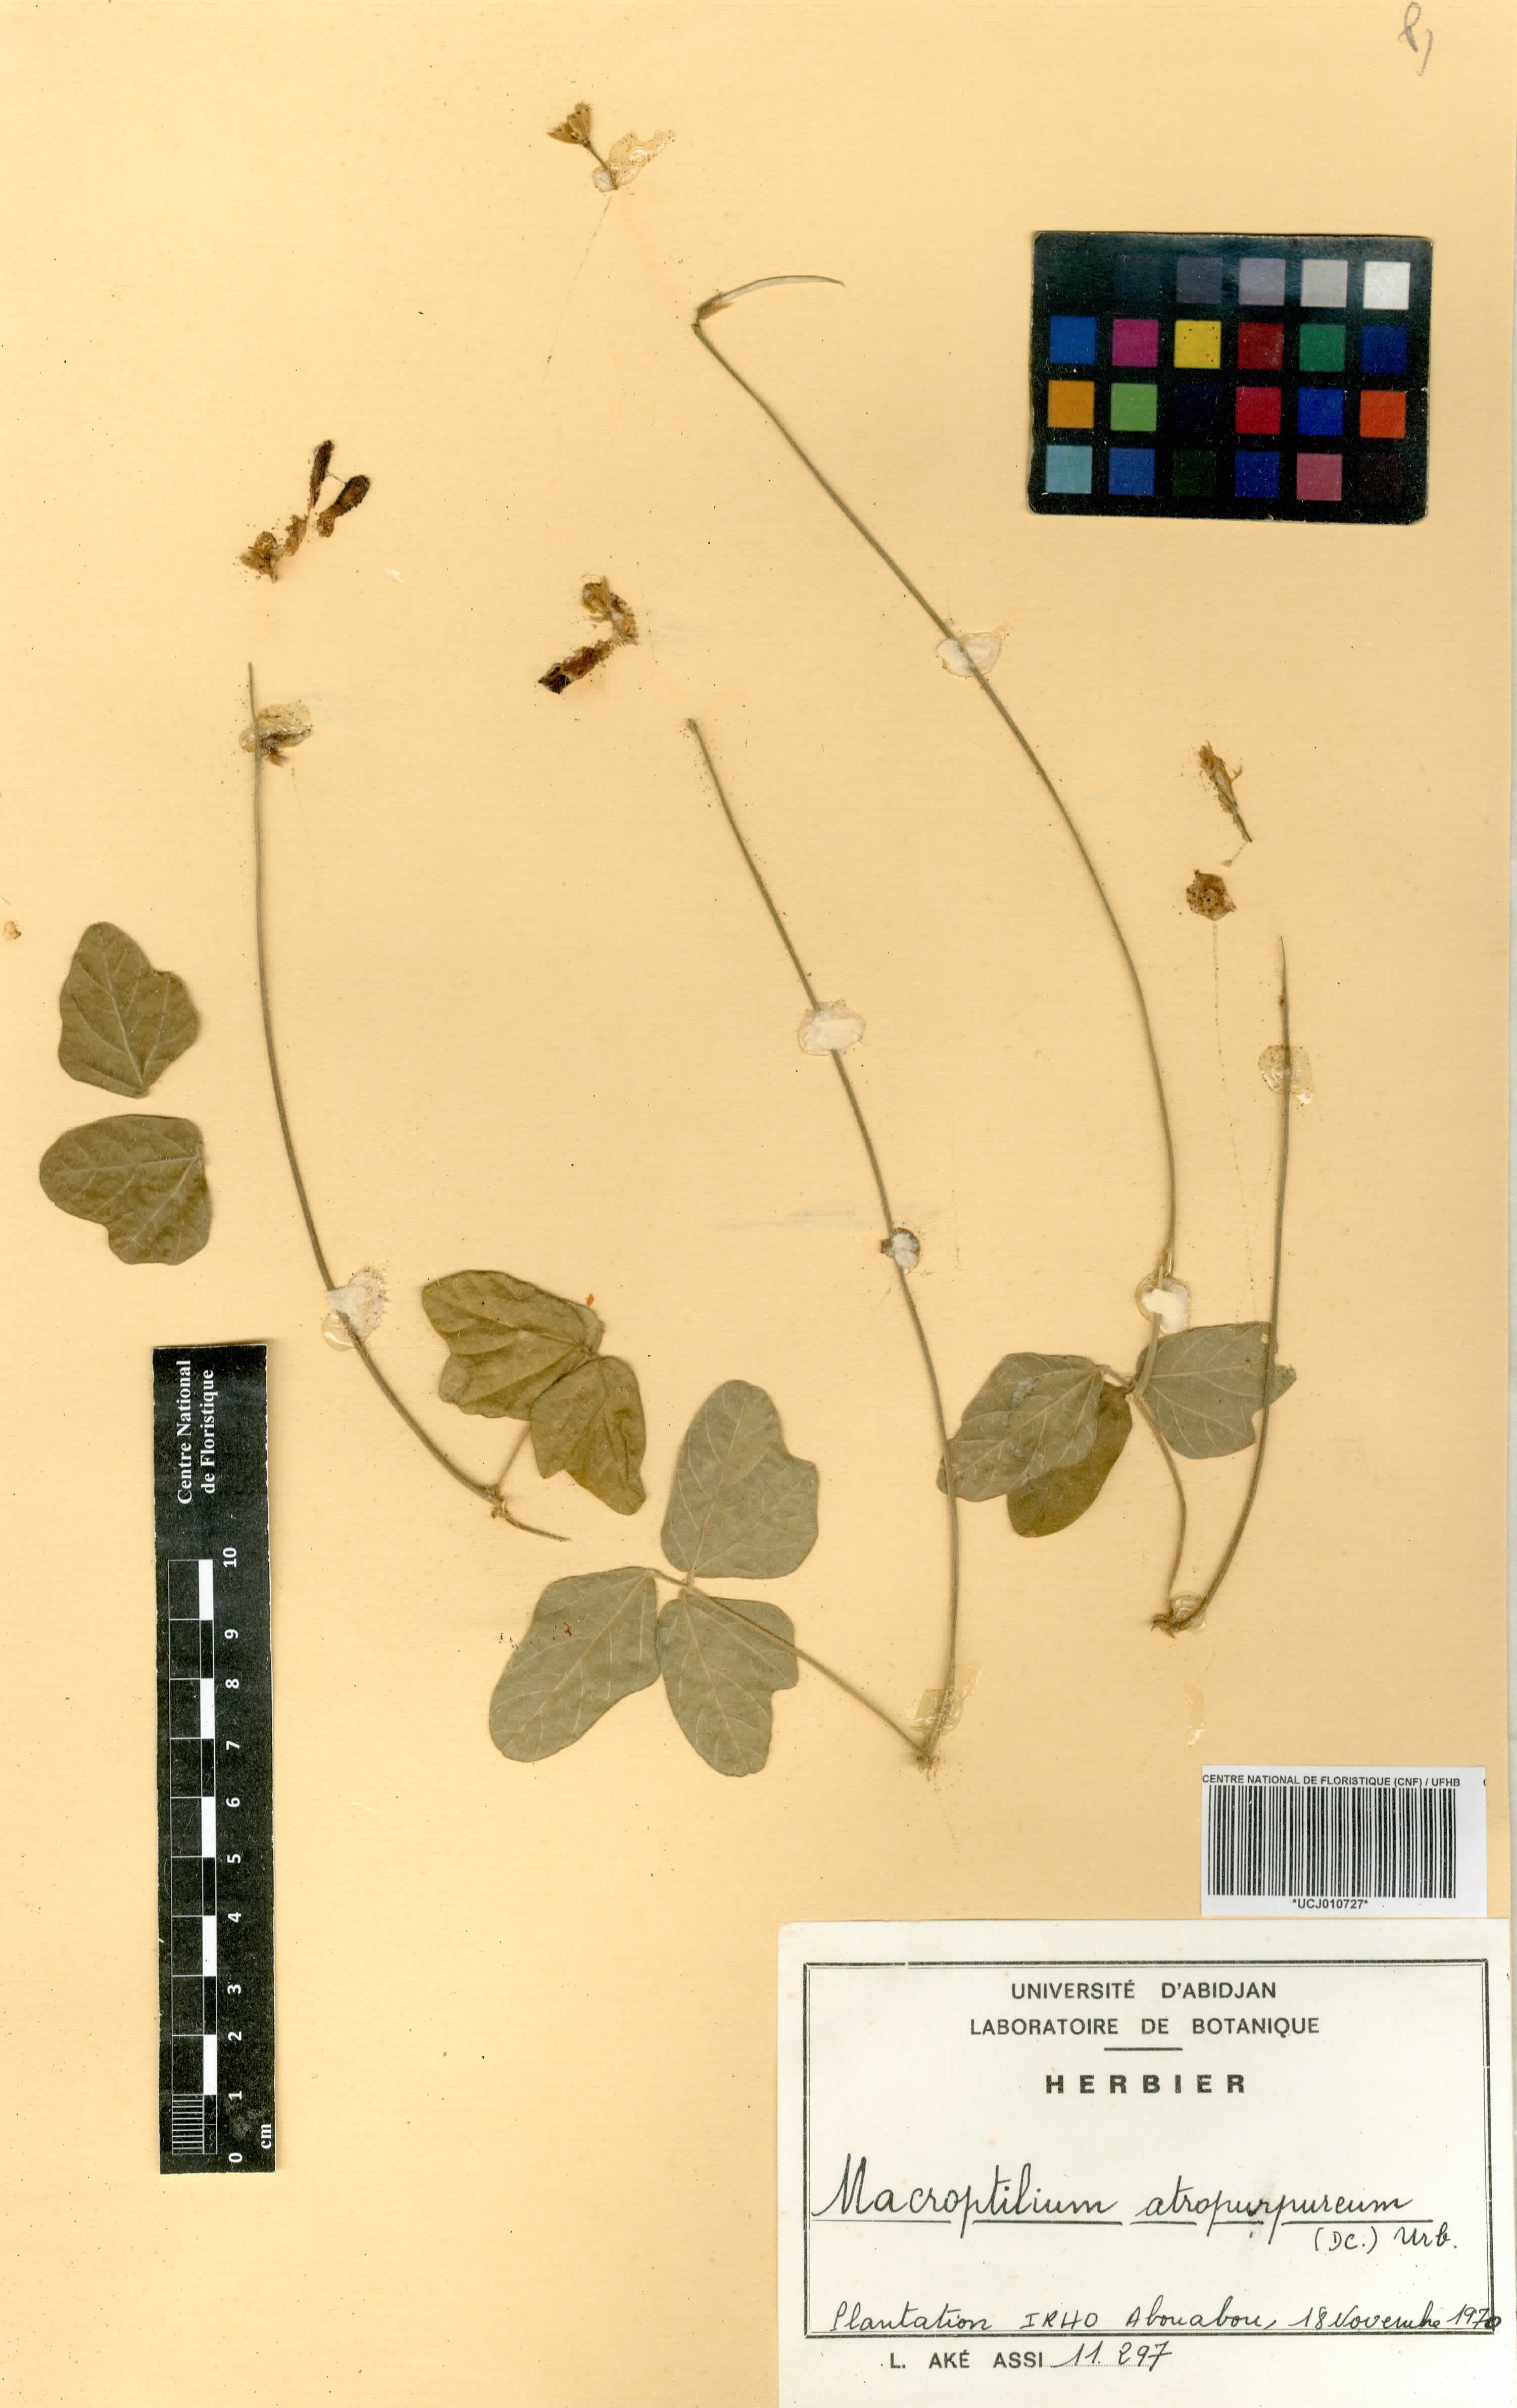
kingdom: Plantae
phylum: Tracheophyta
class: Magnoliopsida
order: Fabales
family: Fabaceae
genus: Macroptilium
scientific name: Macroptilium atropurpureum
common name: Purple bushbean
